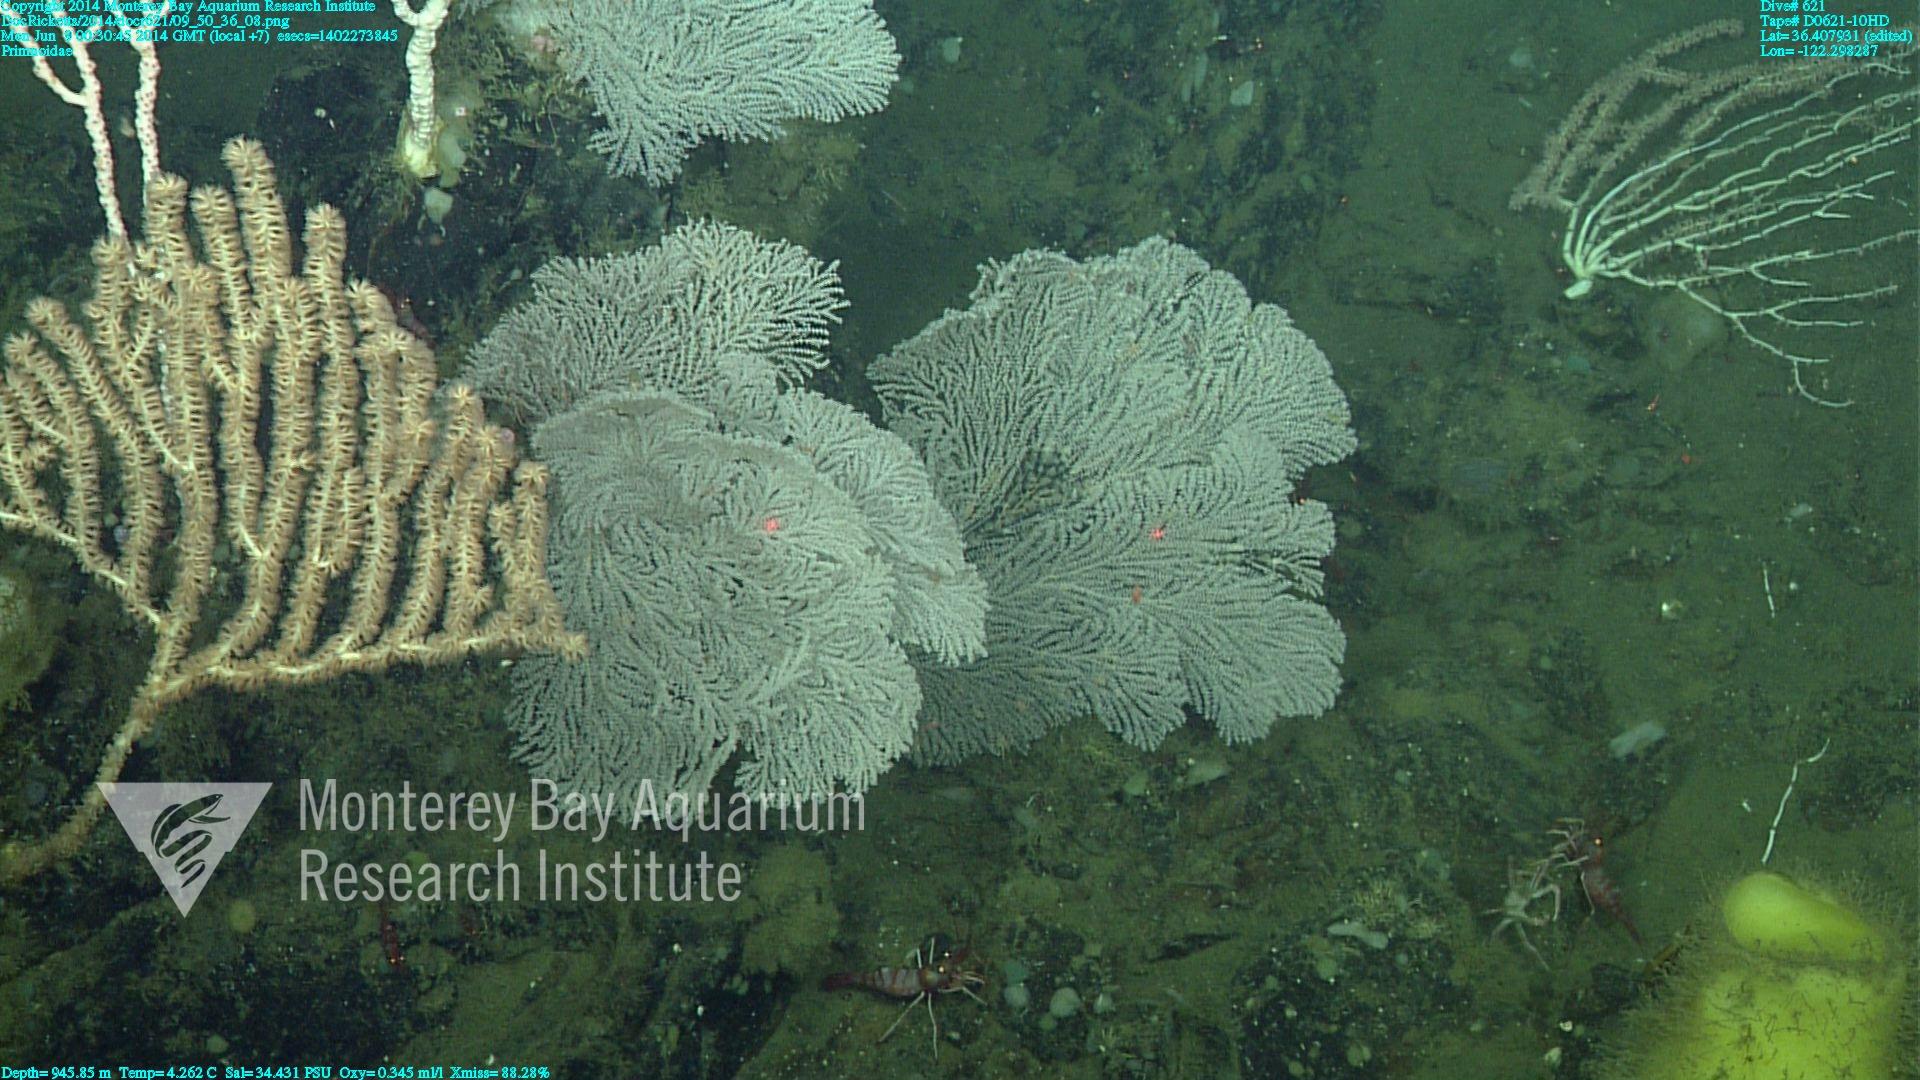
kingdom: Animalia
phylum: Cnidaria
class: Anthozoa
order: Scleralcyonacea
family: Primnoidae
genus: Parastenella
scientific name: Parastenella
